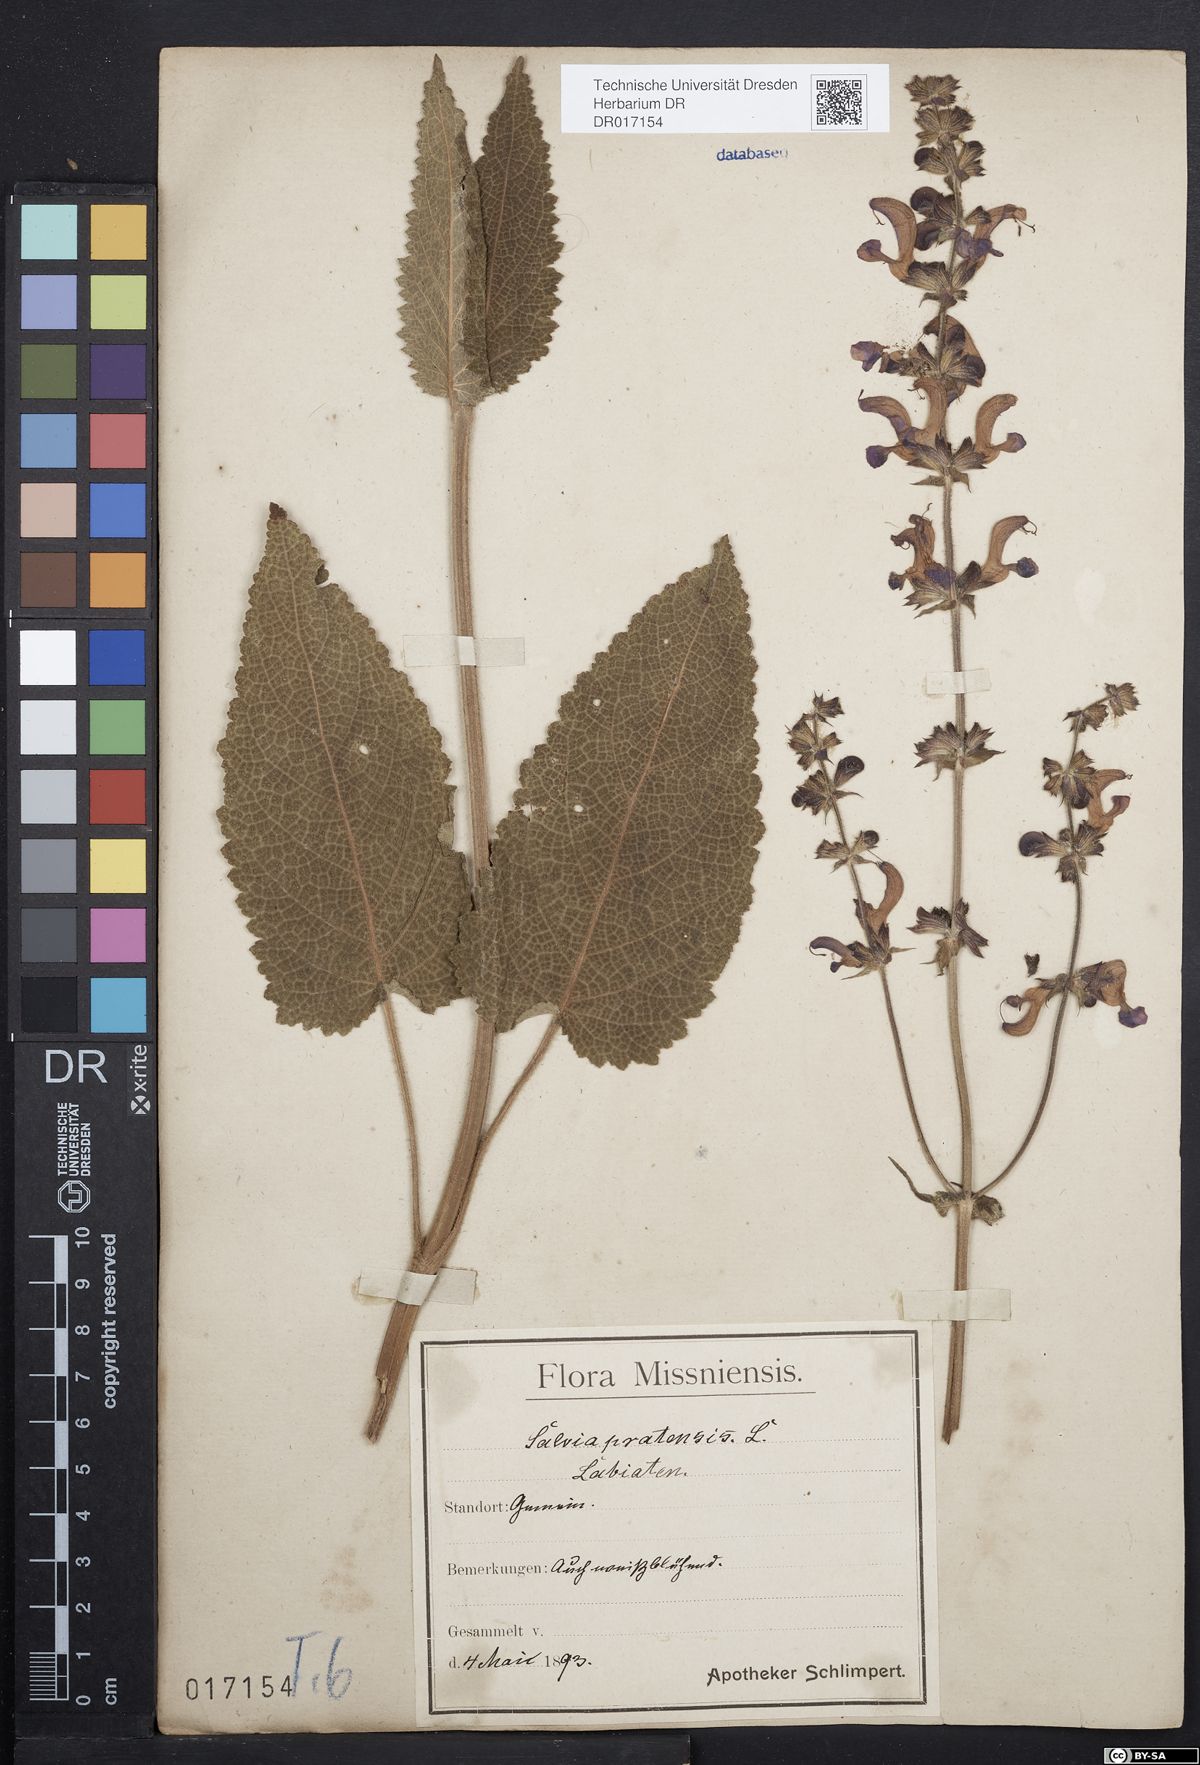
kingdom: Plantae
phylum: Tracheophyta
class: Magnoliopsida
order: Lamiales
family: Lamiaceae
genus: Salvia
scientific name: Salvia pratensis
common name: Meadow sage
